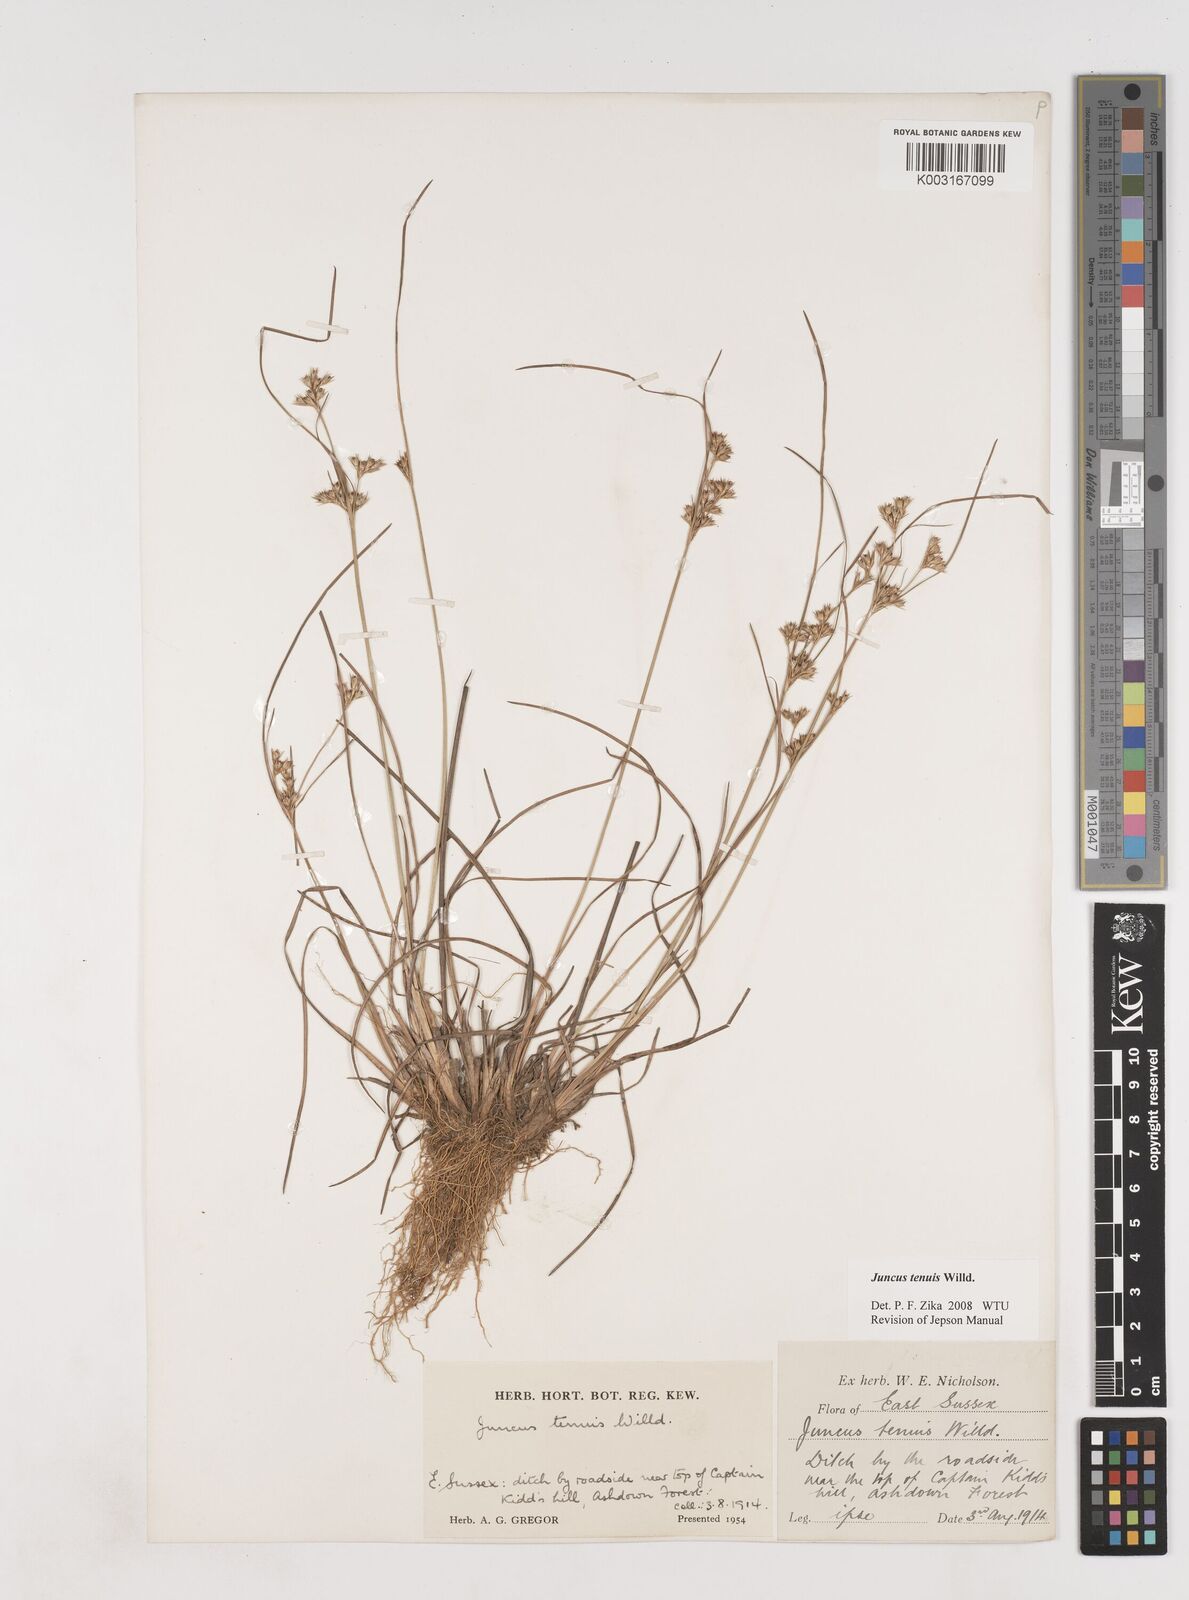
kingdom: Plantae
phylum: Tracheophyta
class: Liliopsida
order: Poales
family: Juncaceae
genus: Juncus
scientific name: Juncus tenuis
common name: Slender rush
